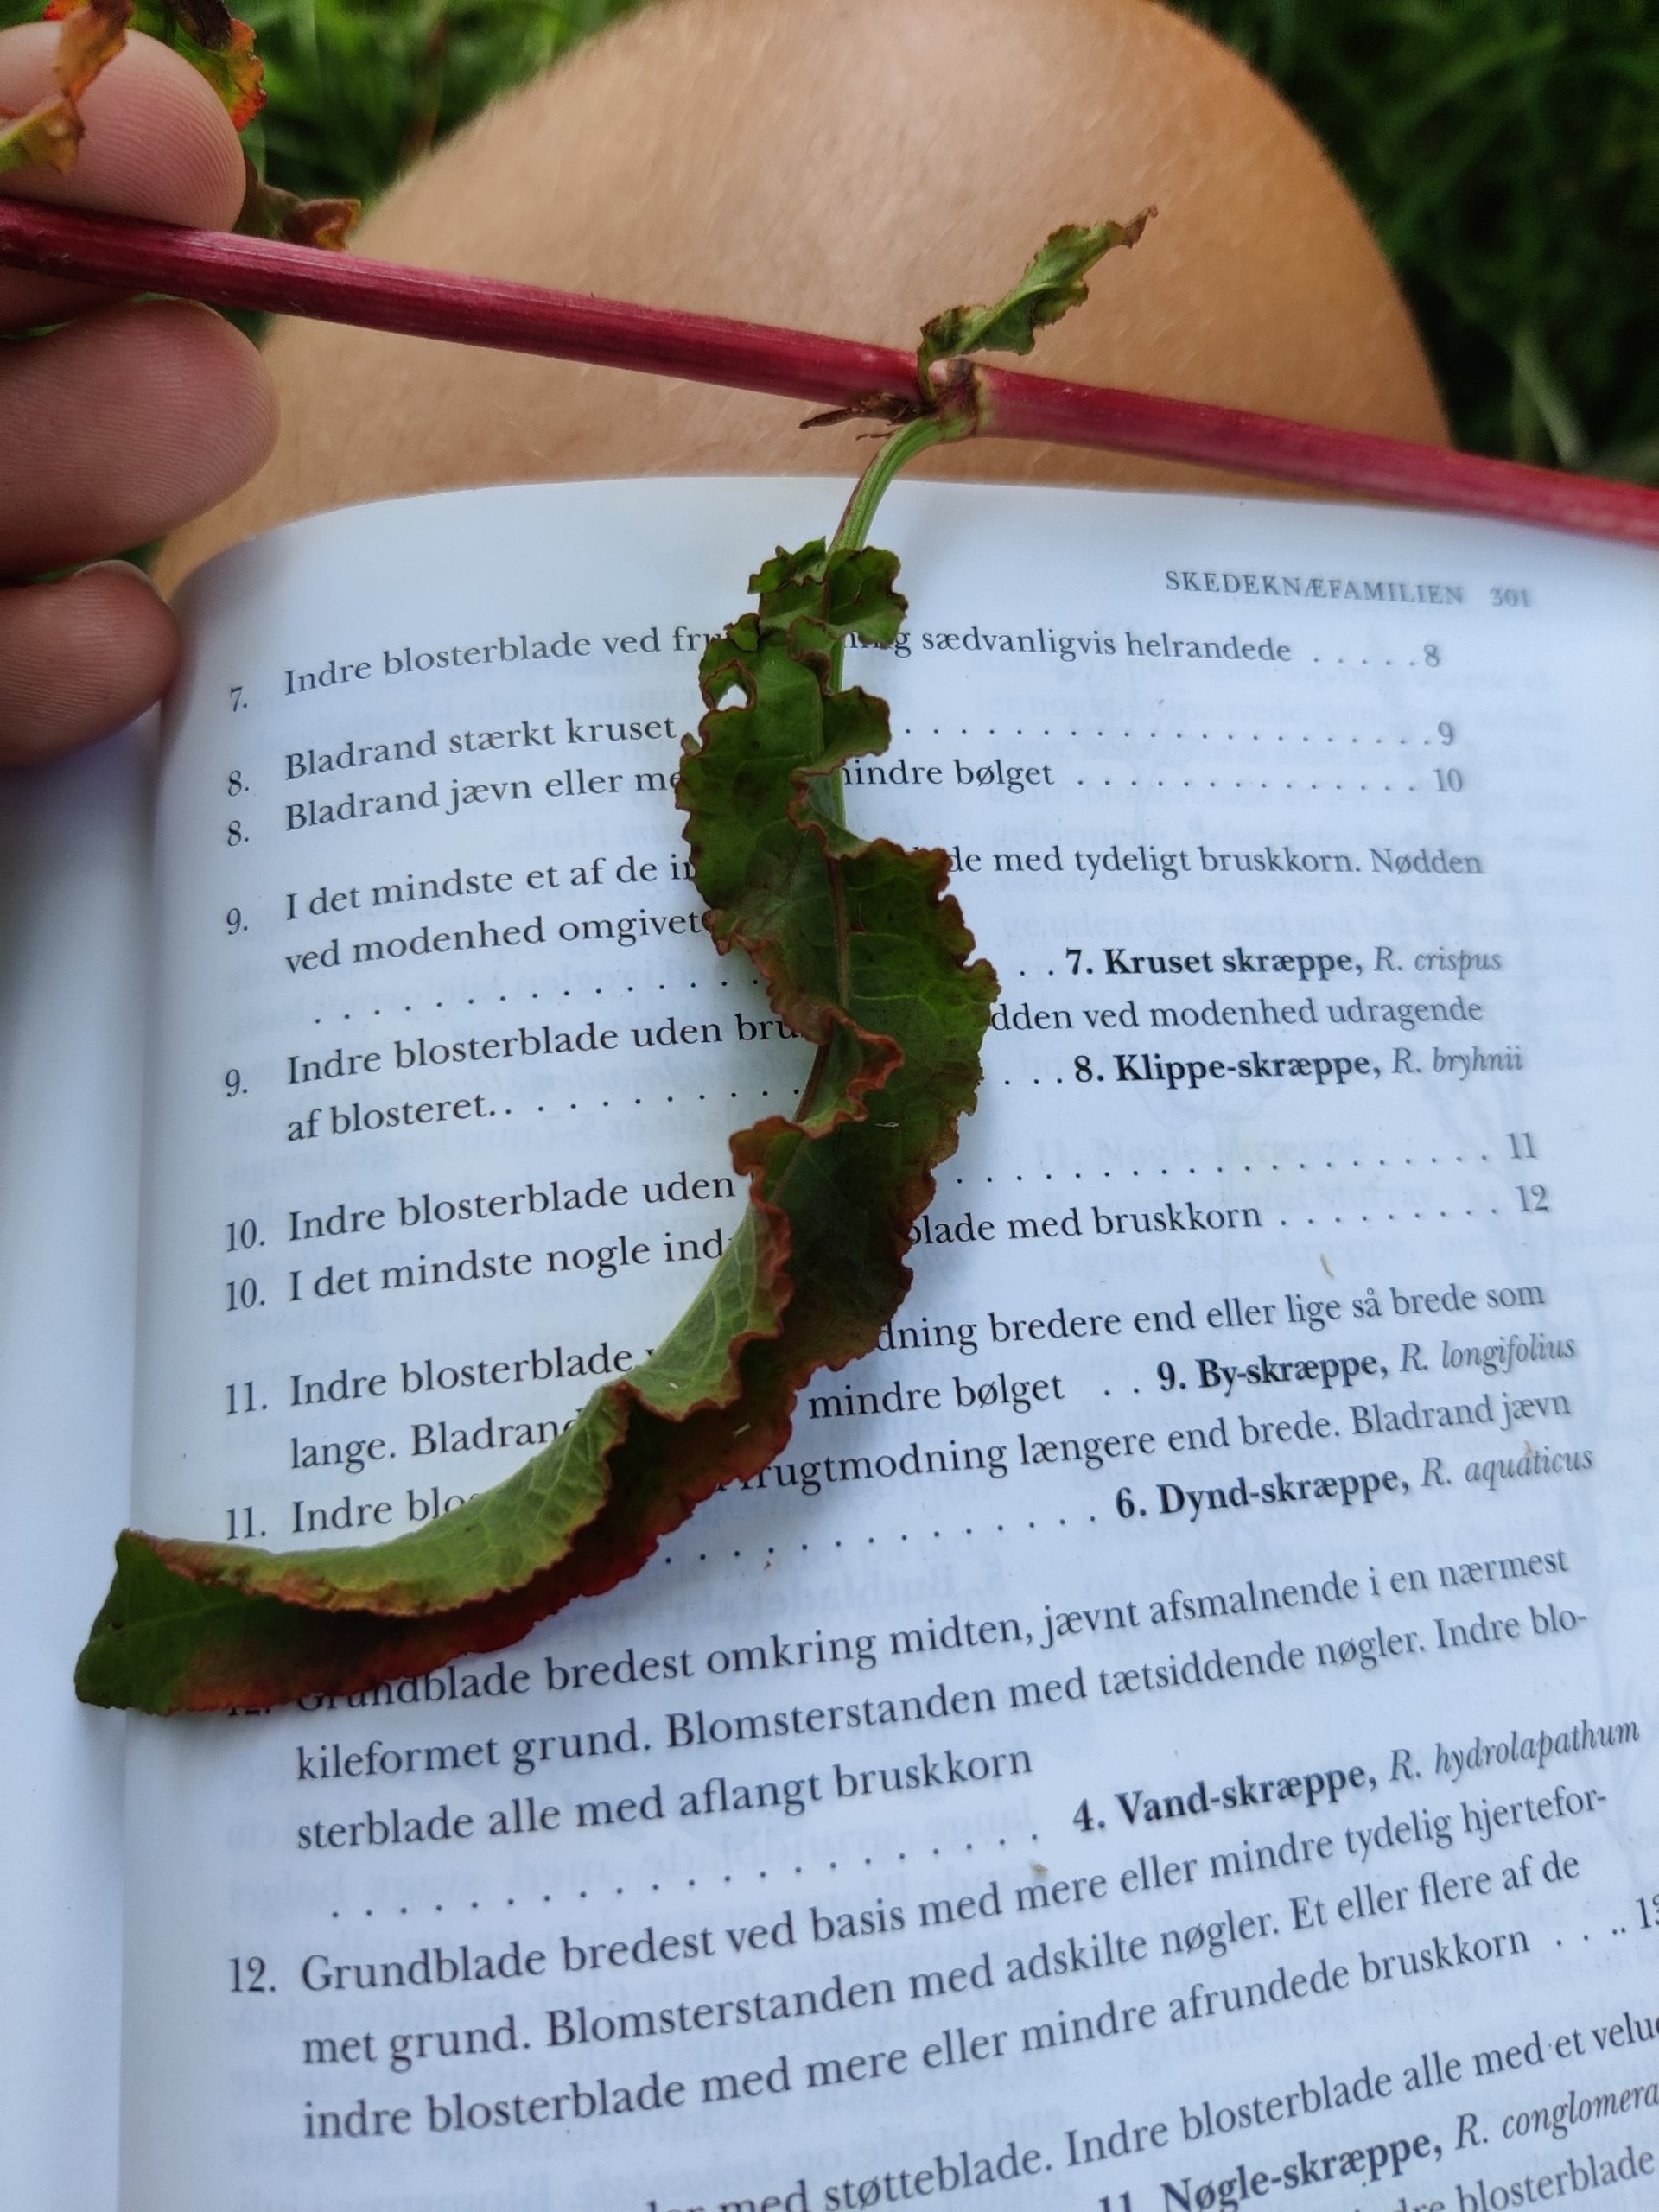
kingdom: Plantae
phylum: Tracheophyta
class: Magnoliopsida
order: Caryophyllales
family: Polygonaceae
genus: Rumex
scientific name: Rumex crispus
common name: Kruset skræppe
